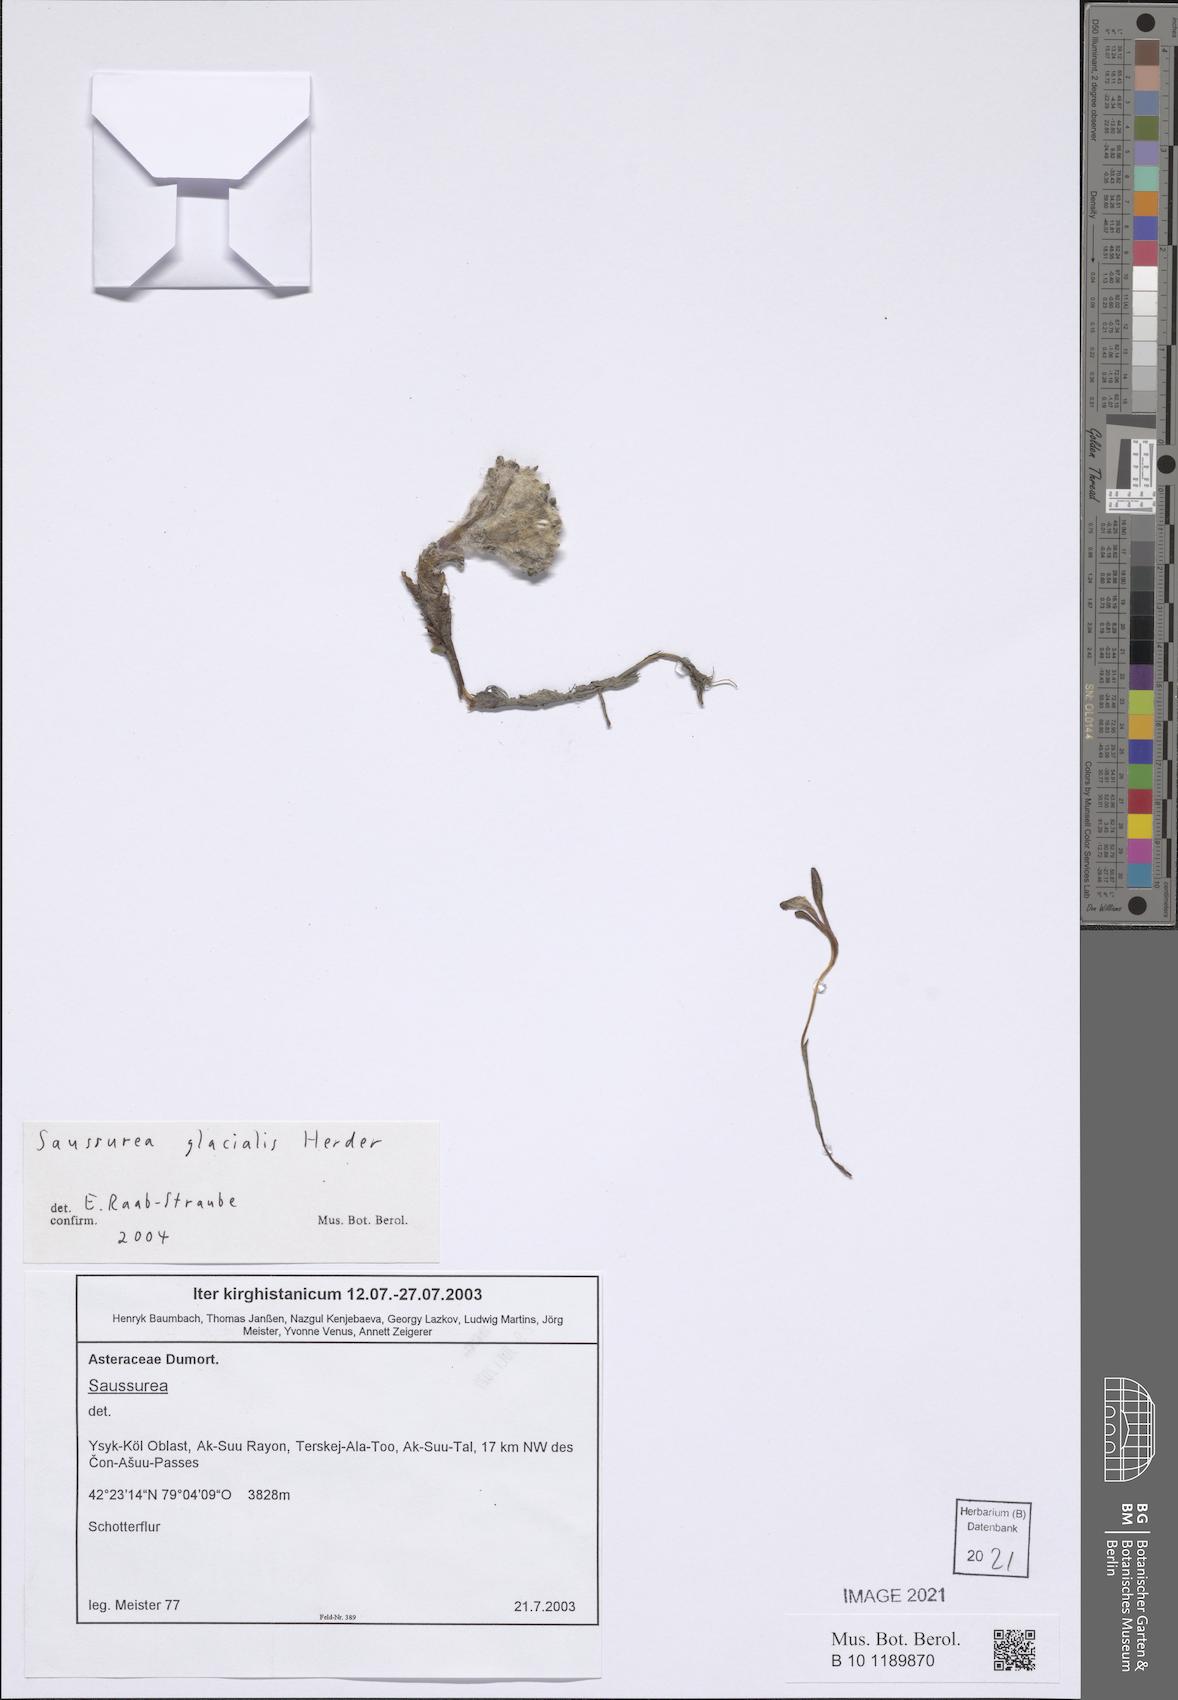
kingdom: Plantae
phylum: Tracheophyta
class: Magnoliopsida
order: Asterales
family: Asteraceae
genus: Saussurea
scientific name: Saussurea glacialis
